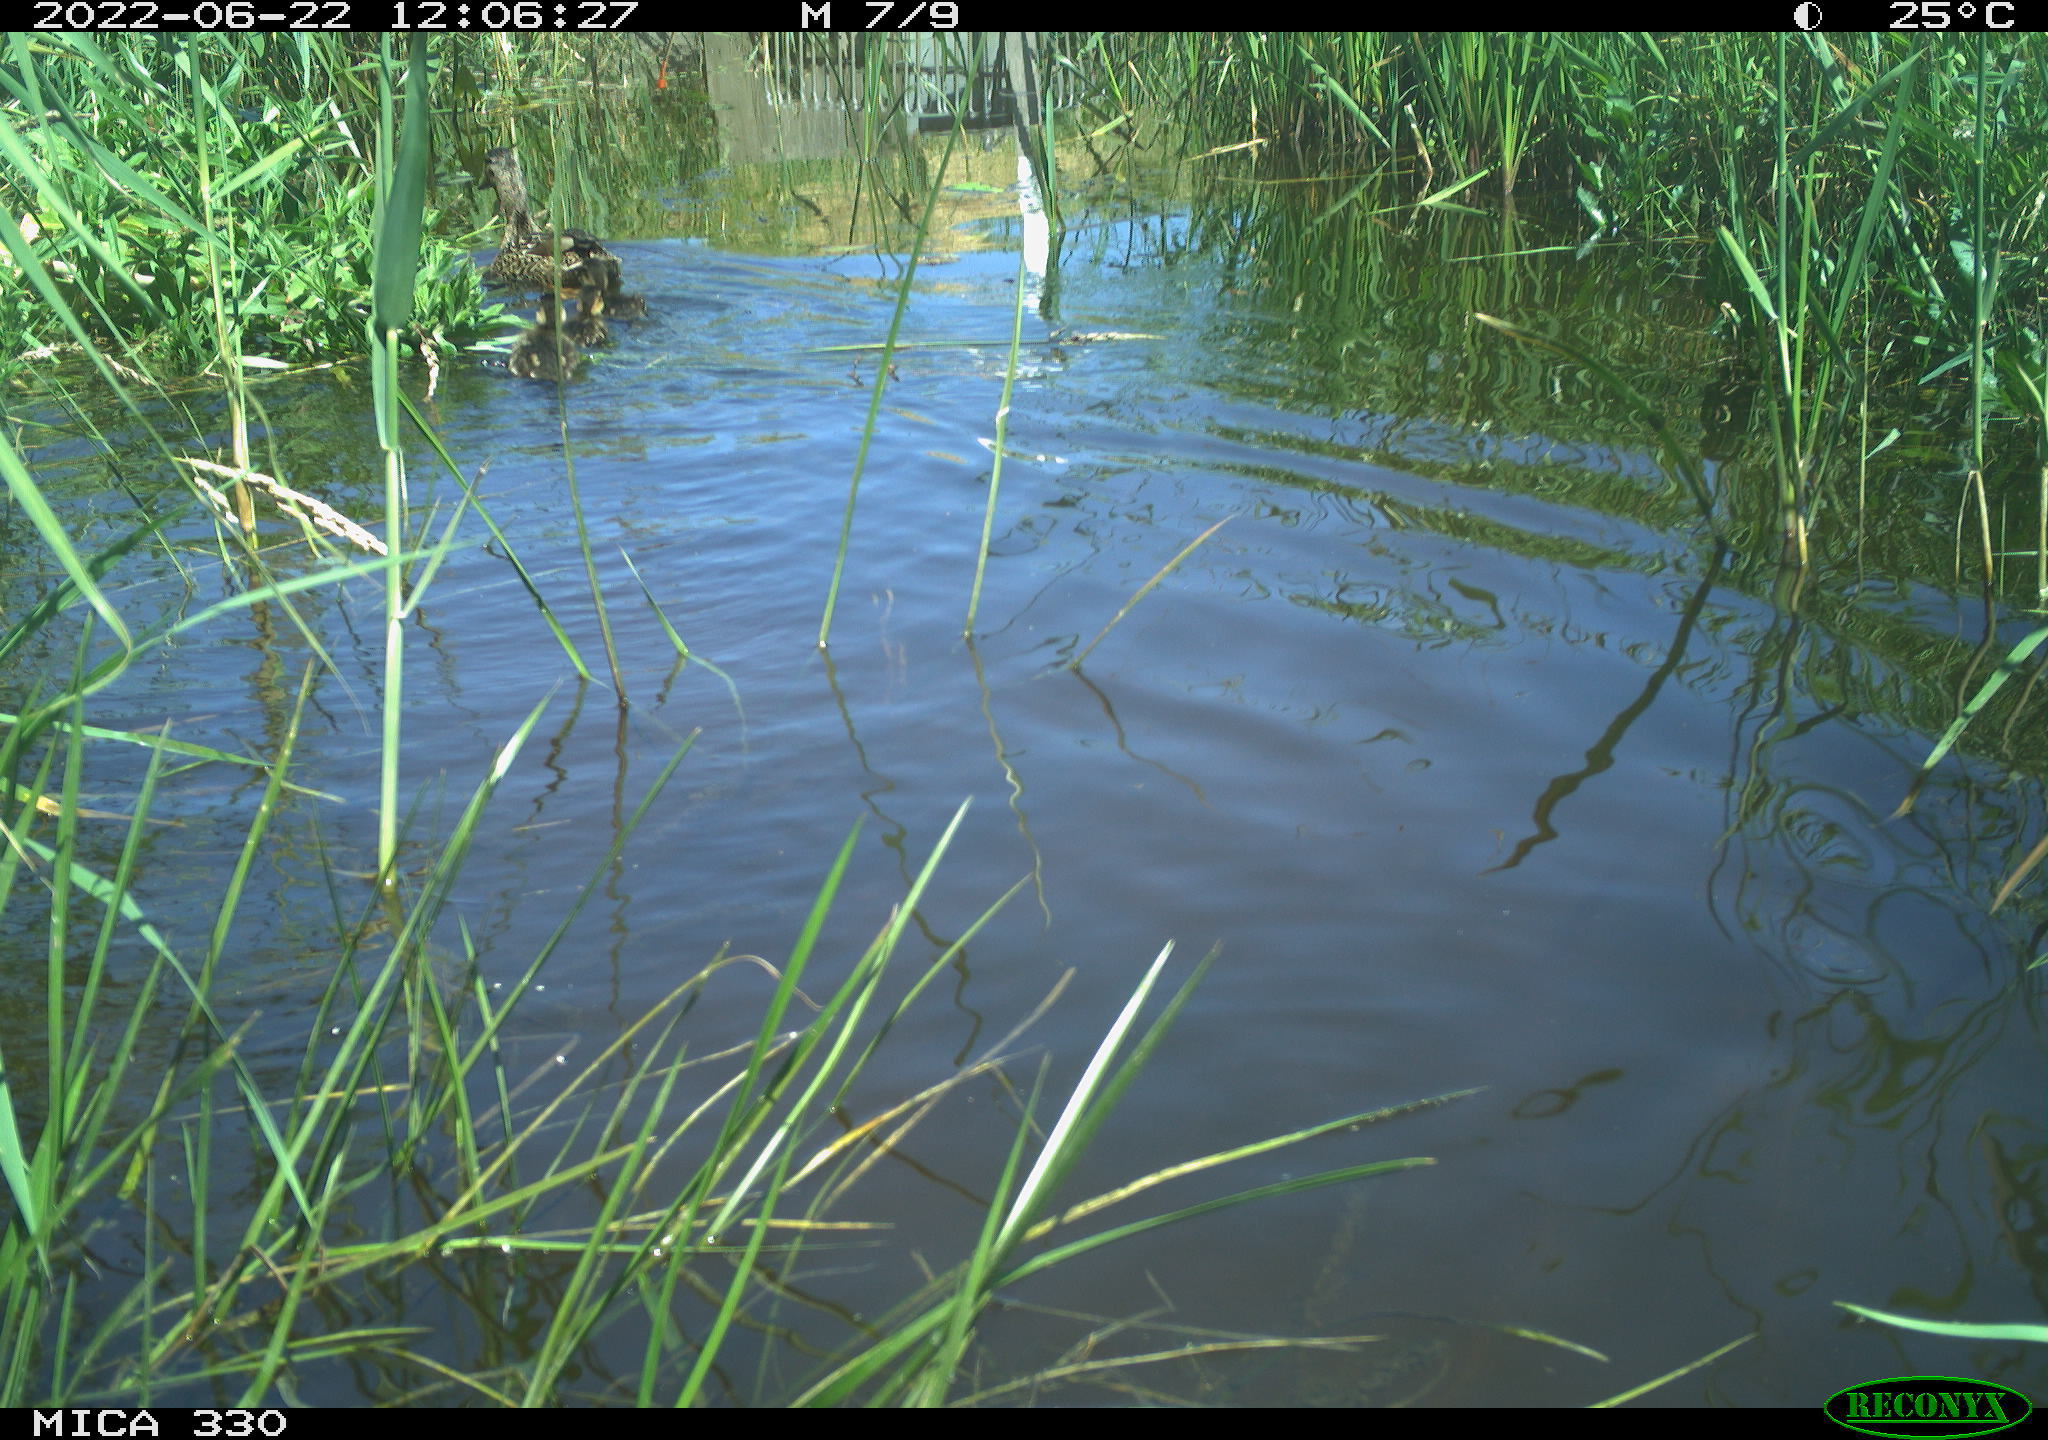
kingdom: Animalia
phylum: Chordata
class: Aves
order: Anseriformes
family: Anatidae
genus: Anas
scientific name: Anas platyrhynchos
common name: Mallard
